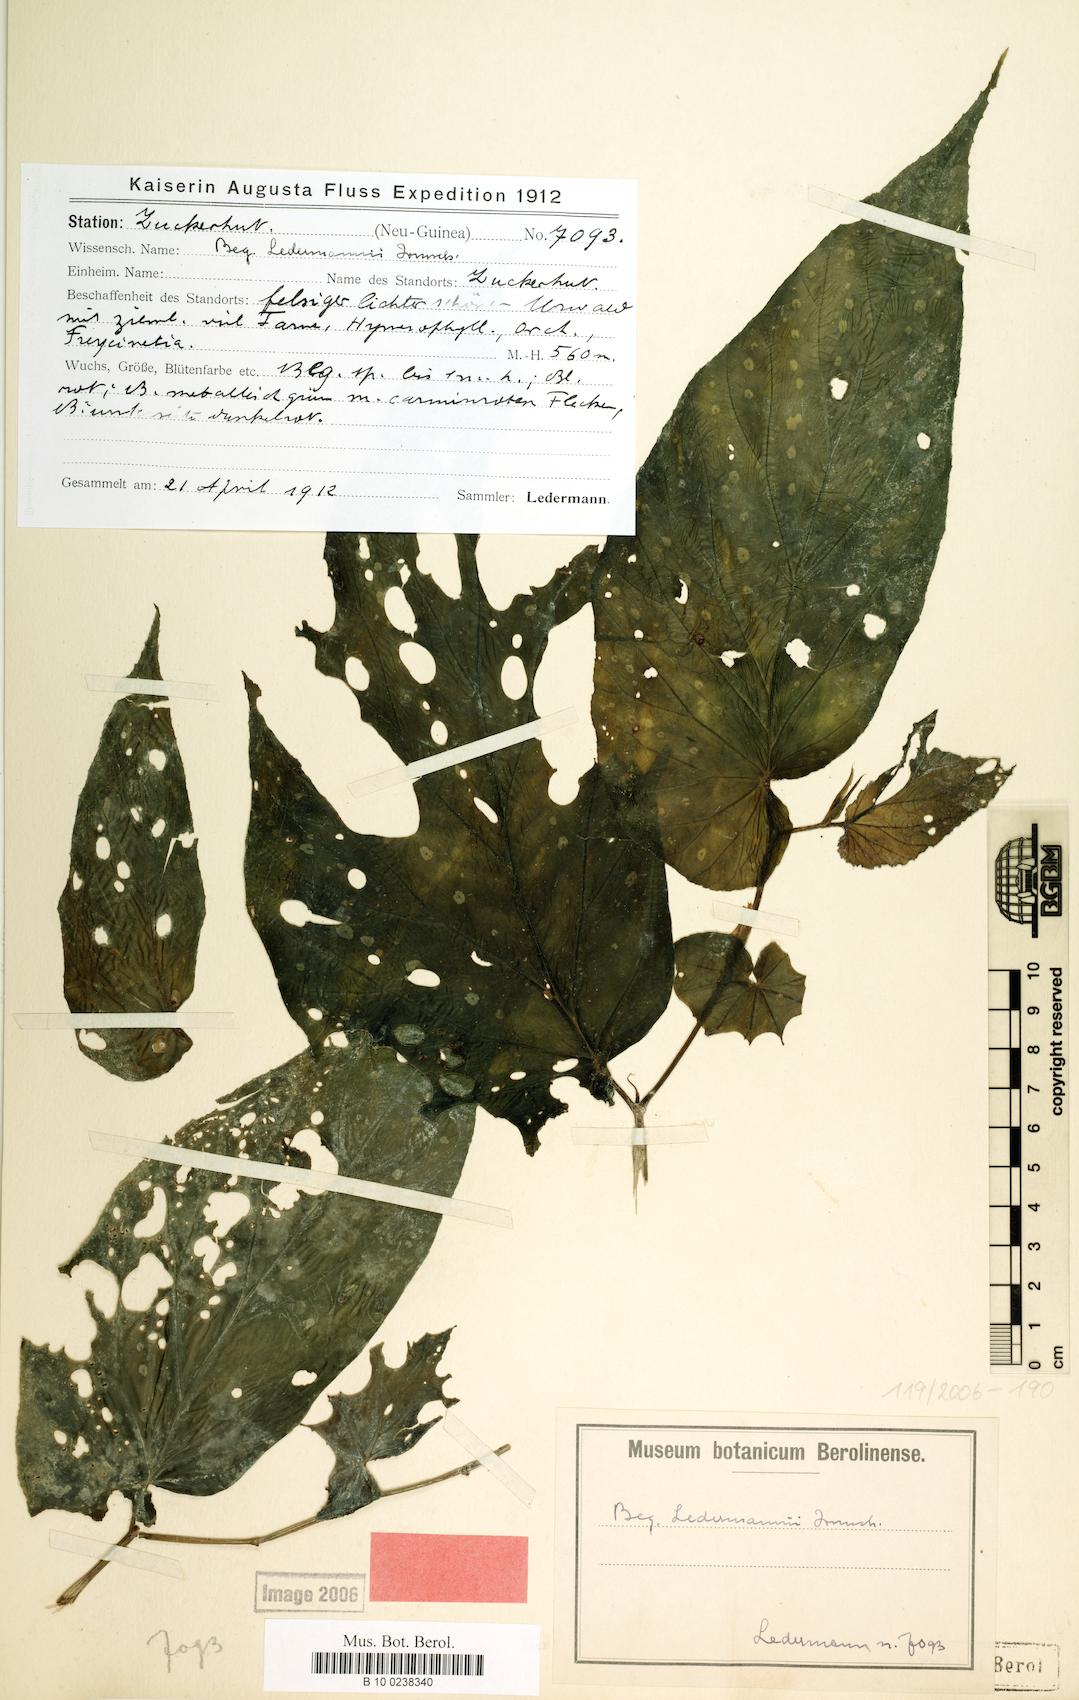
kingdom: Plantae
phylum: Tracheophyta
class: Magnoliopsida
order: Cucurbitales
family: Begoniaceae
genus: Begonia
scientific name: Begonia ledermannii
